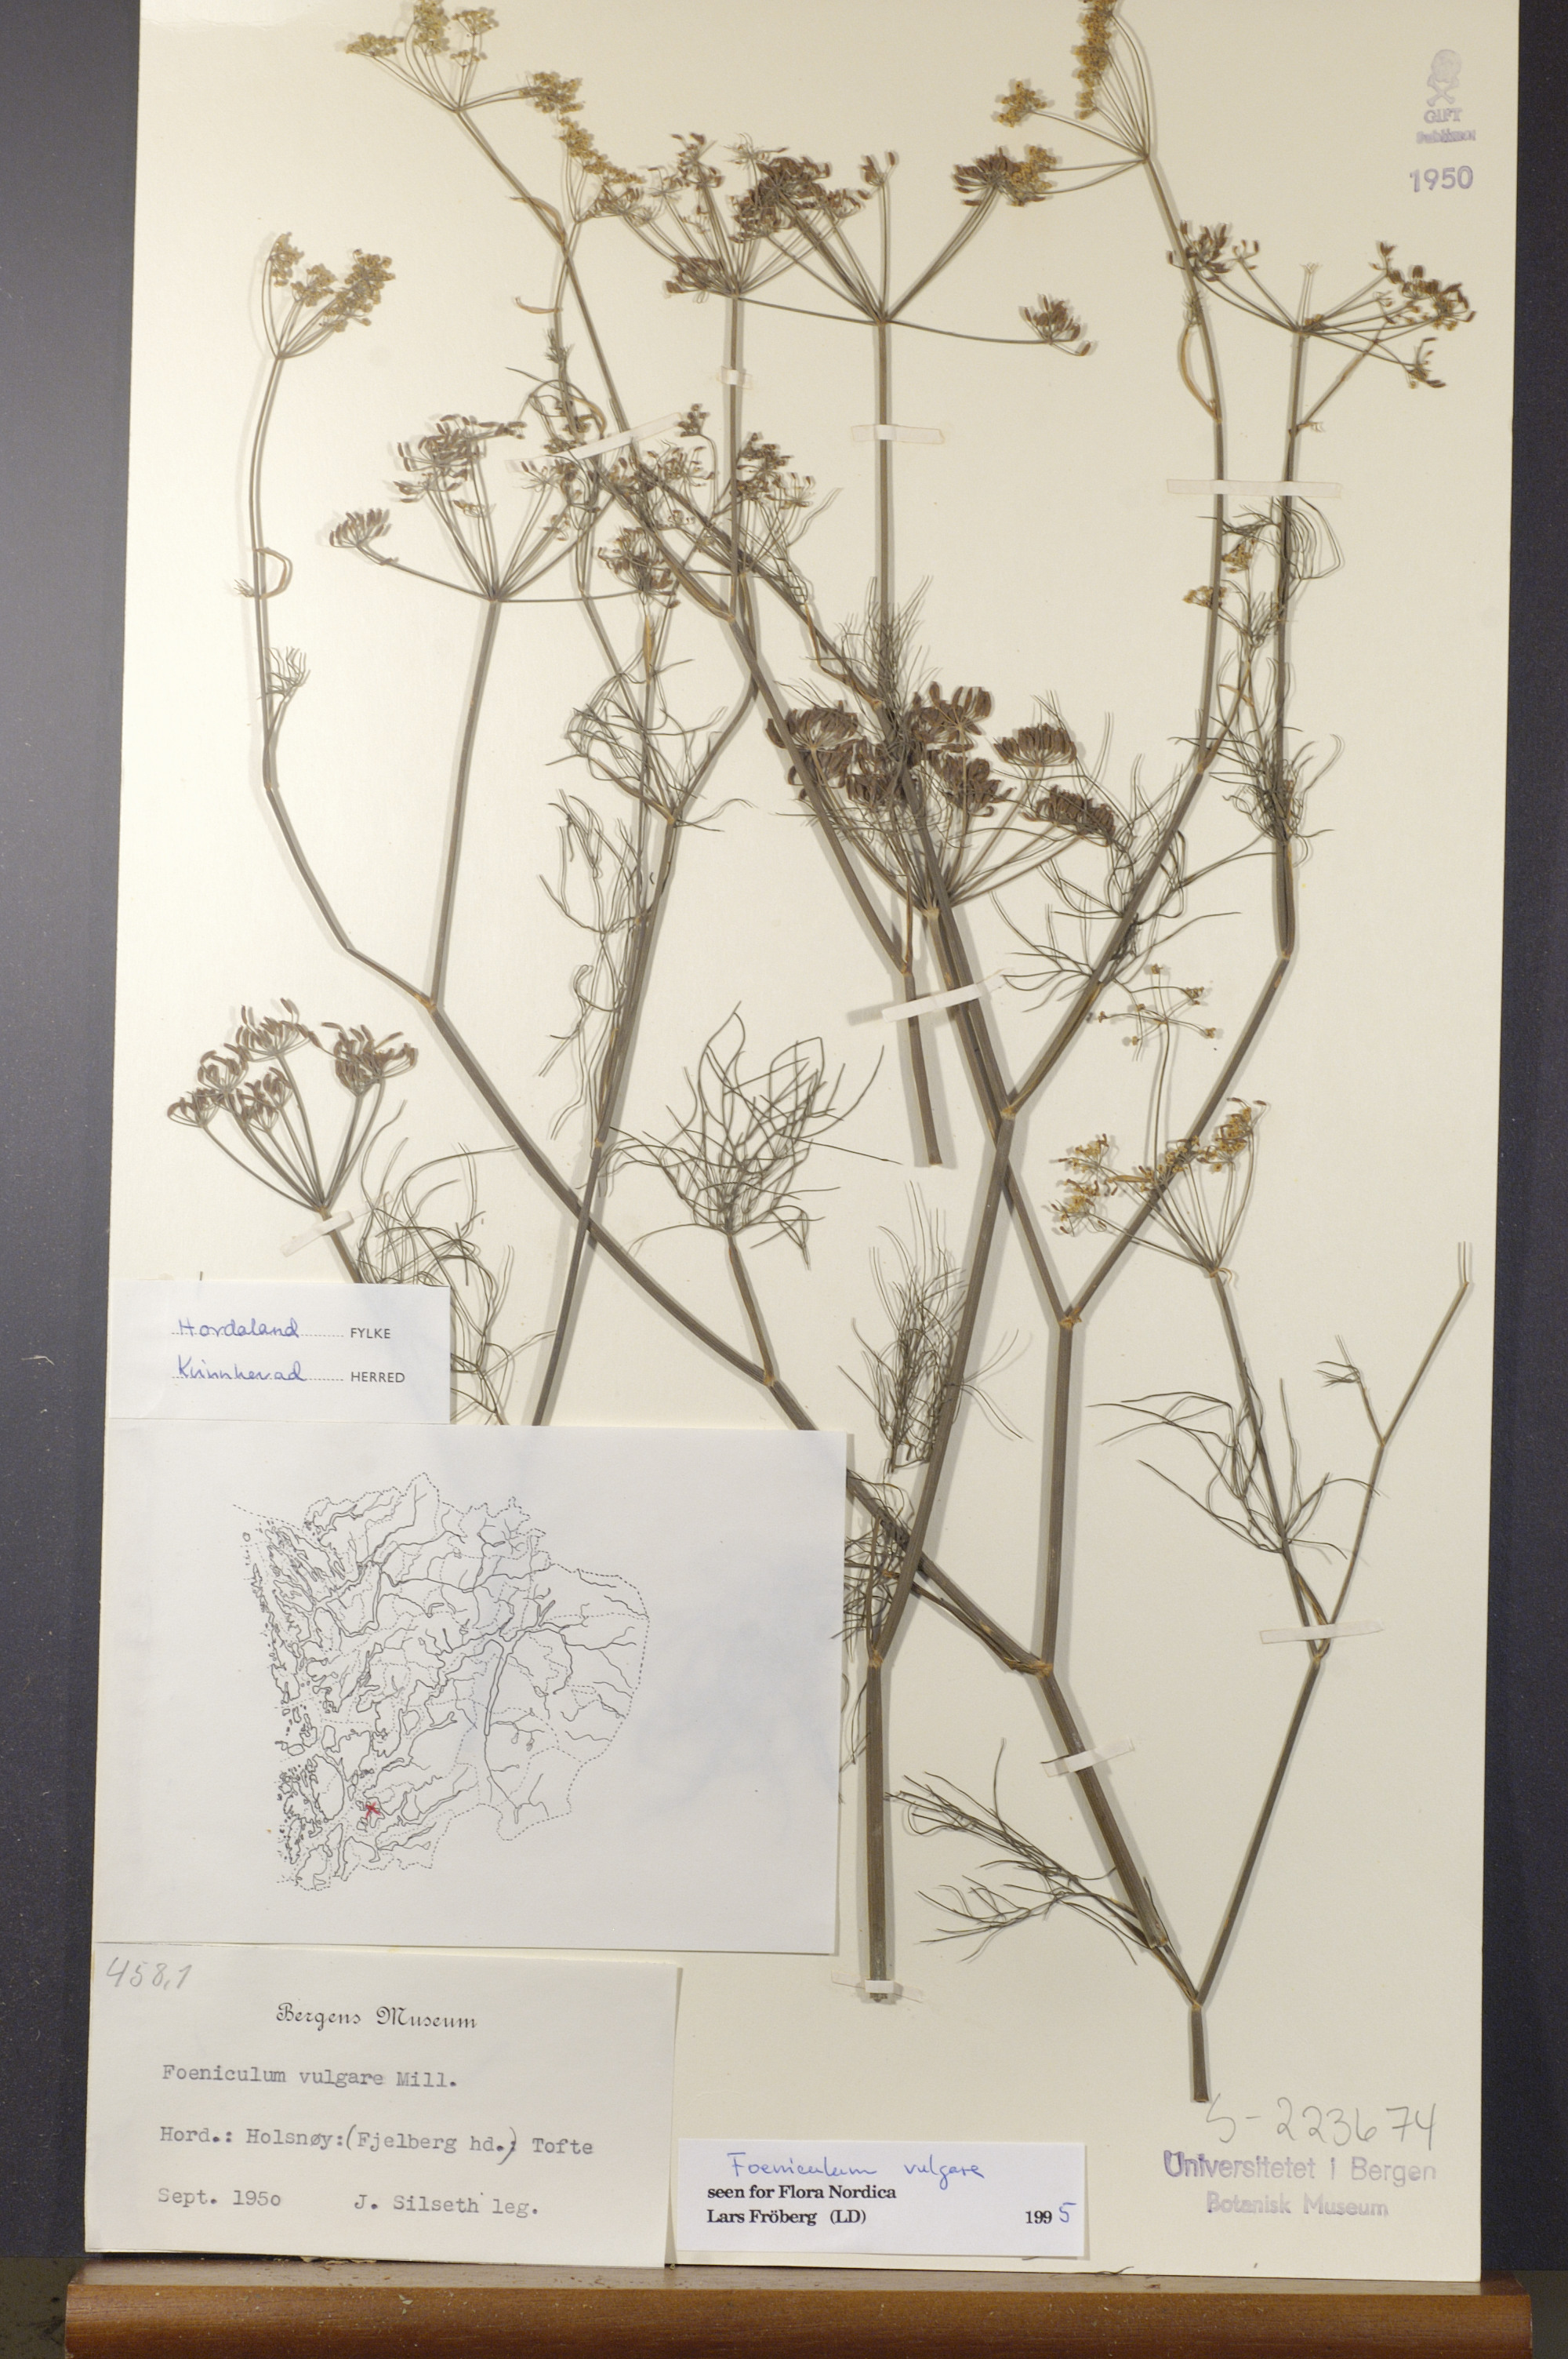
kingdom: Plantae
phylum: Tracheophyta
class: Magnoliopsida
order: Apiales
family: Apiaceae
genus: Foeniculum
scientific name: Foeniculum vulgare
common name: Fennel
